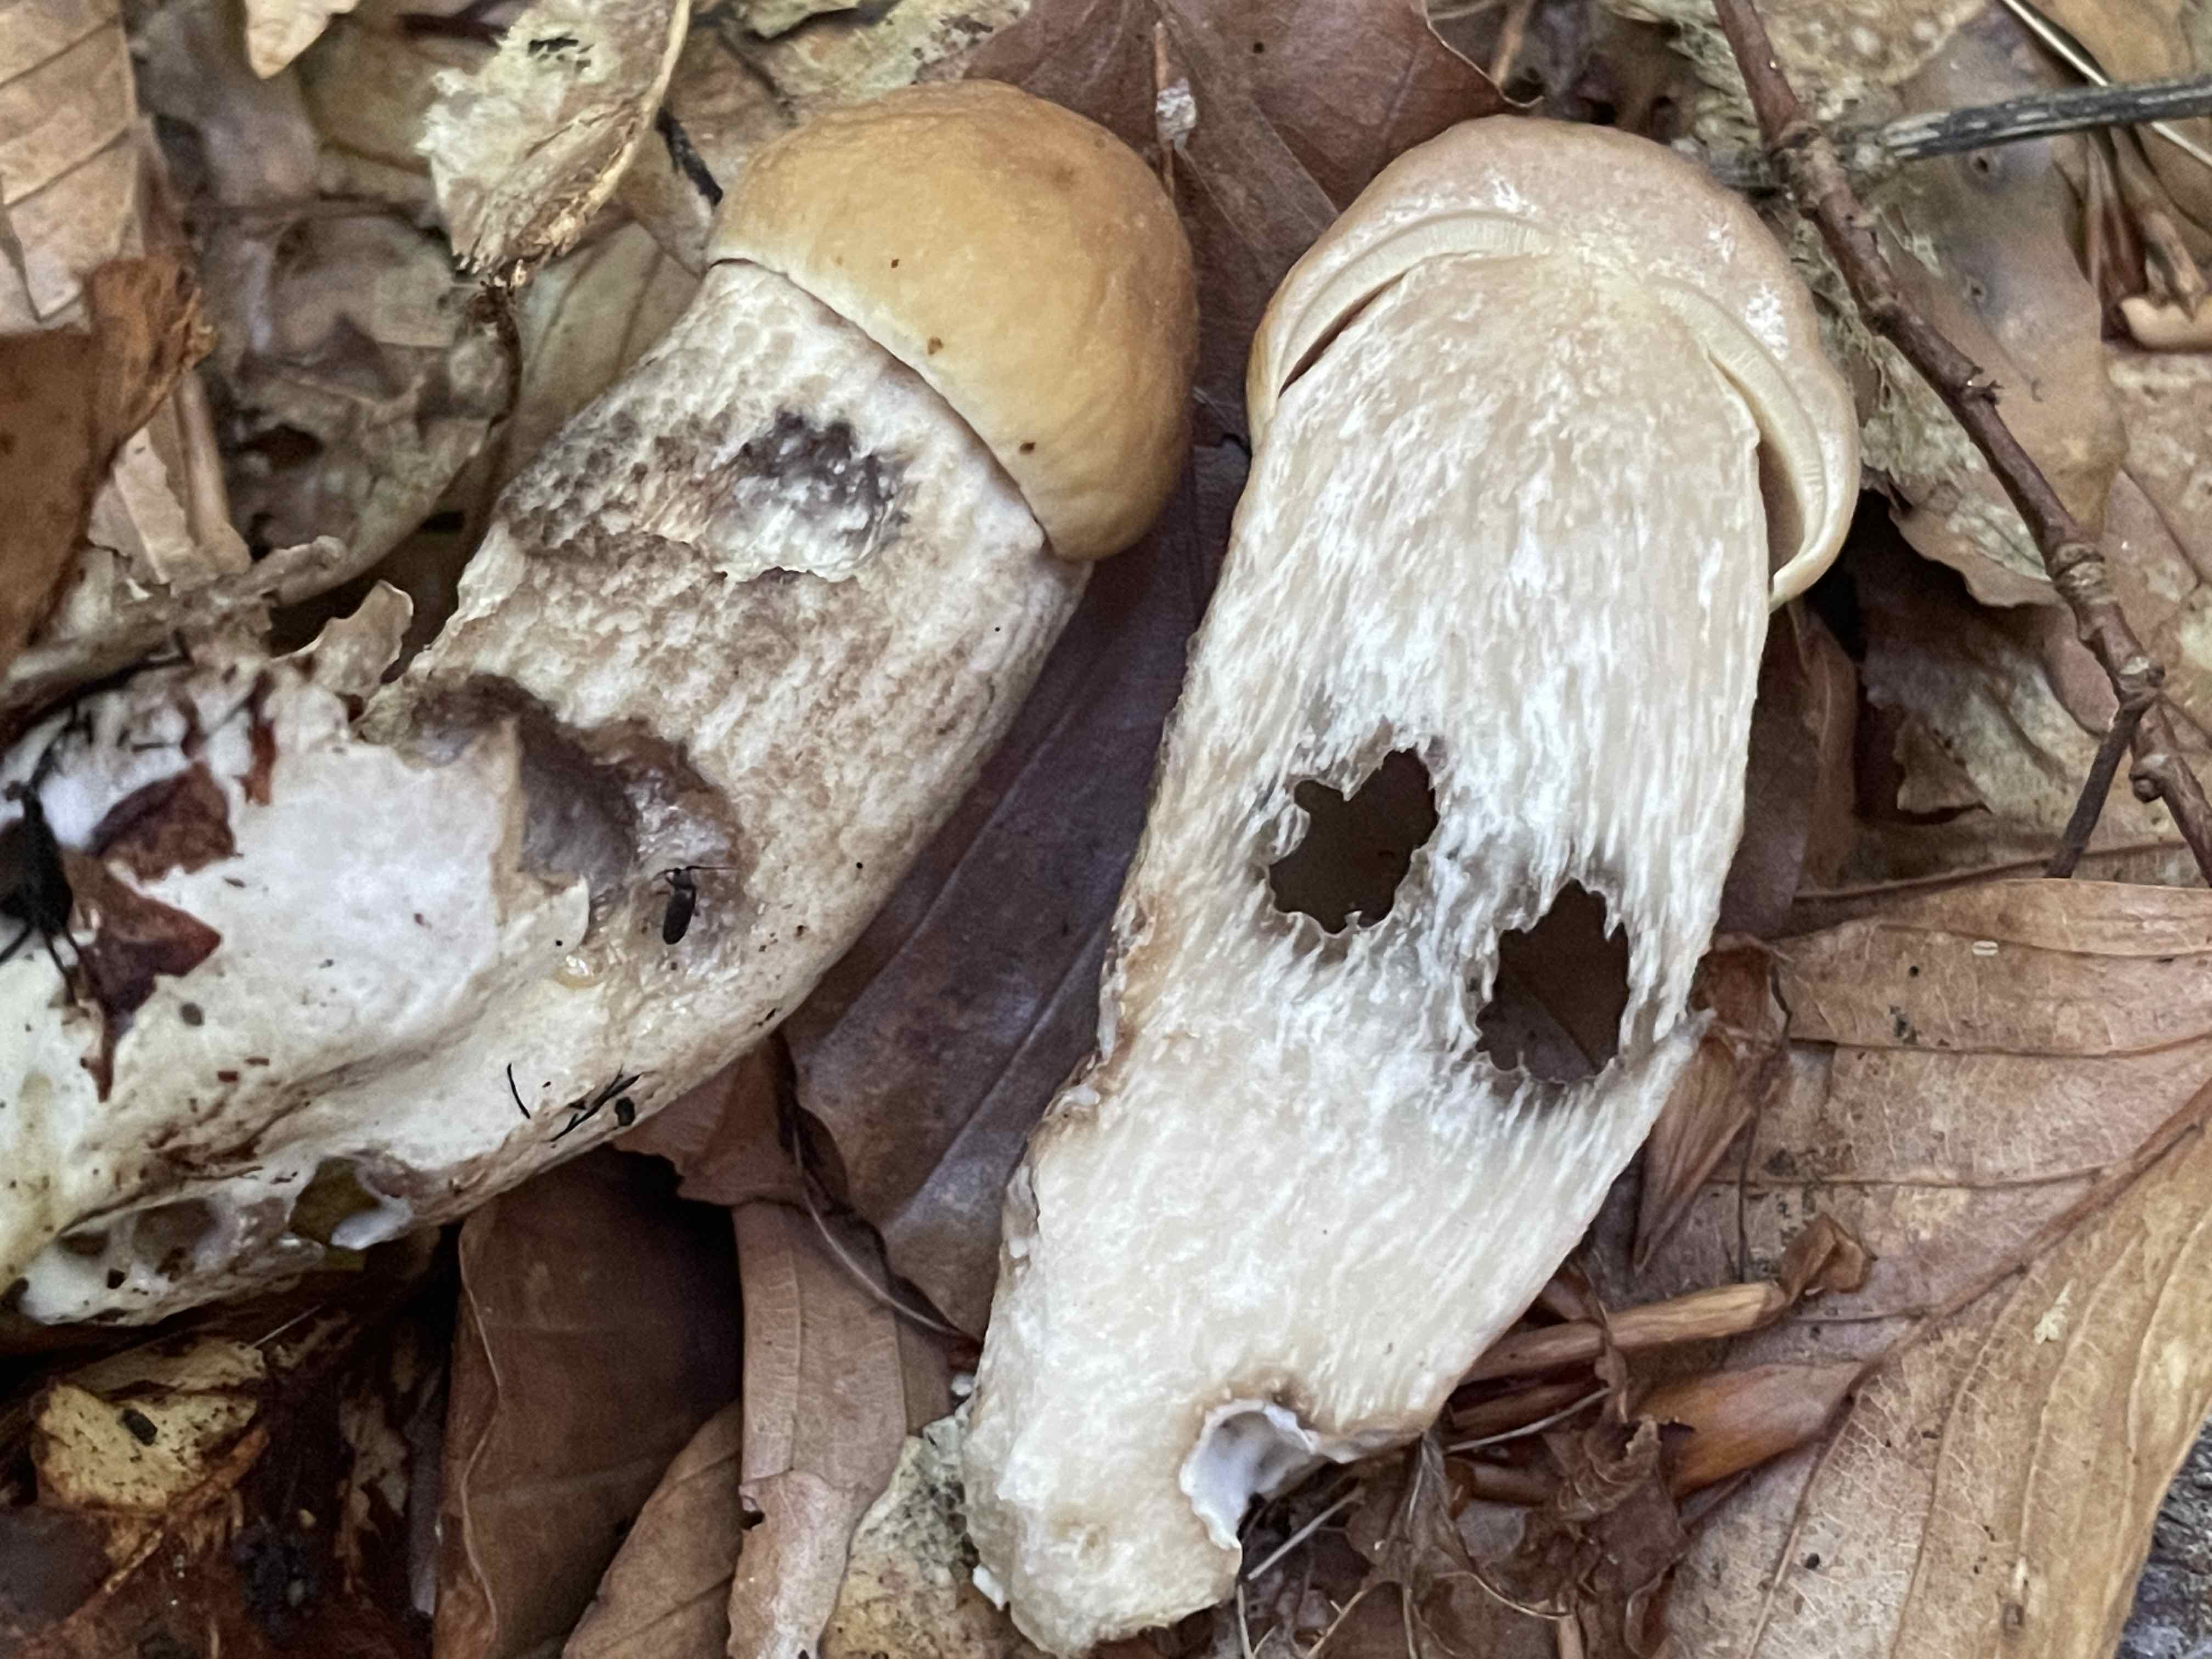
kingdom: Fungi
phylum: Basidiomycota
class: Agaricomycetes
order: Boletales
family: Boletaceae
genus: Leccinellum
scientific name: Leccinellum pseudoscabrum
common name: avnbøg-skælrørhat
